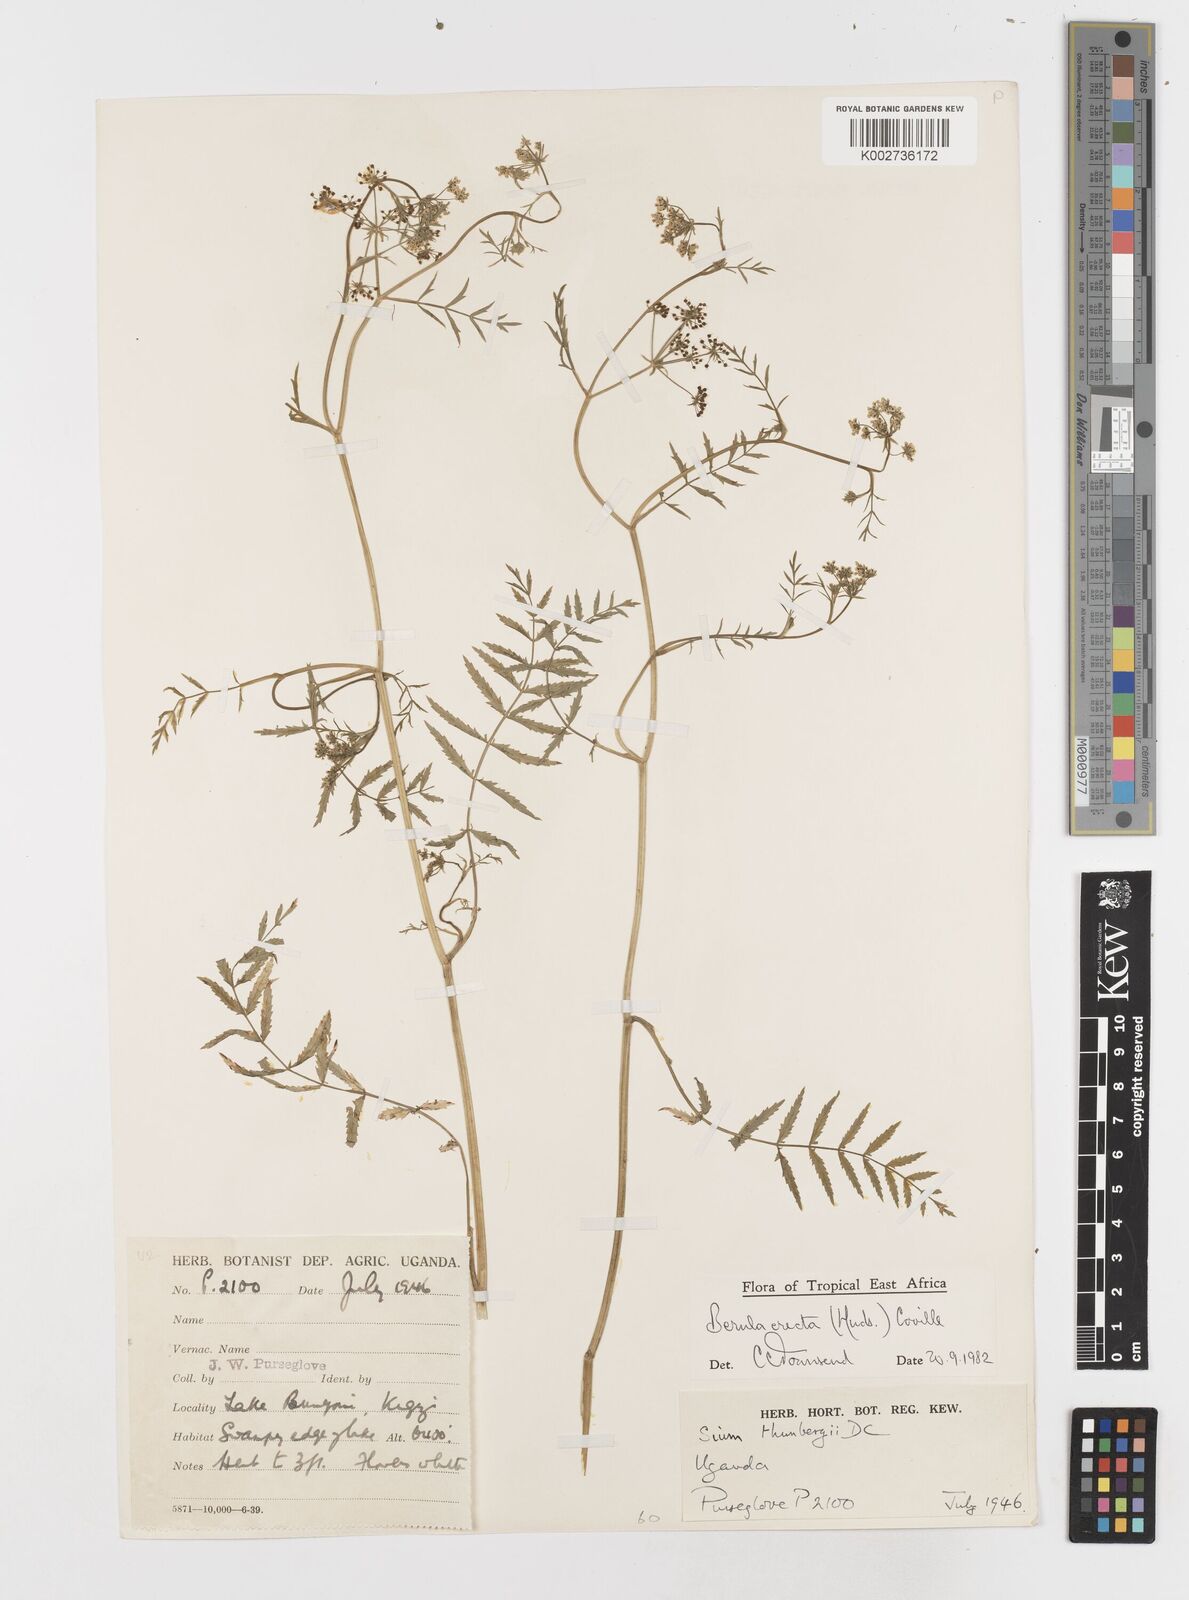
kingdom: Plantae
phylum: Tracheophyta
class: Magnoliopsida
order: Apiales
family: Apiaceae
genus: Berula
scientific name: Berula erecta
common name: Lesser water-parsnip
